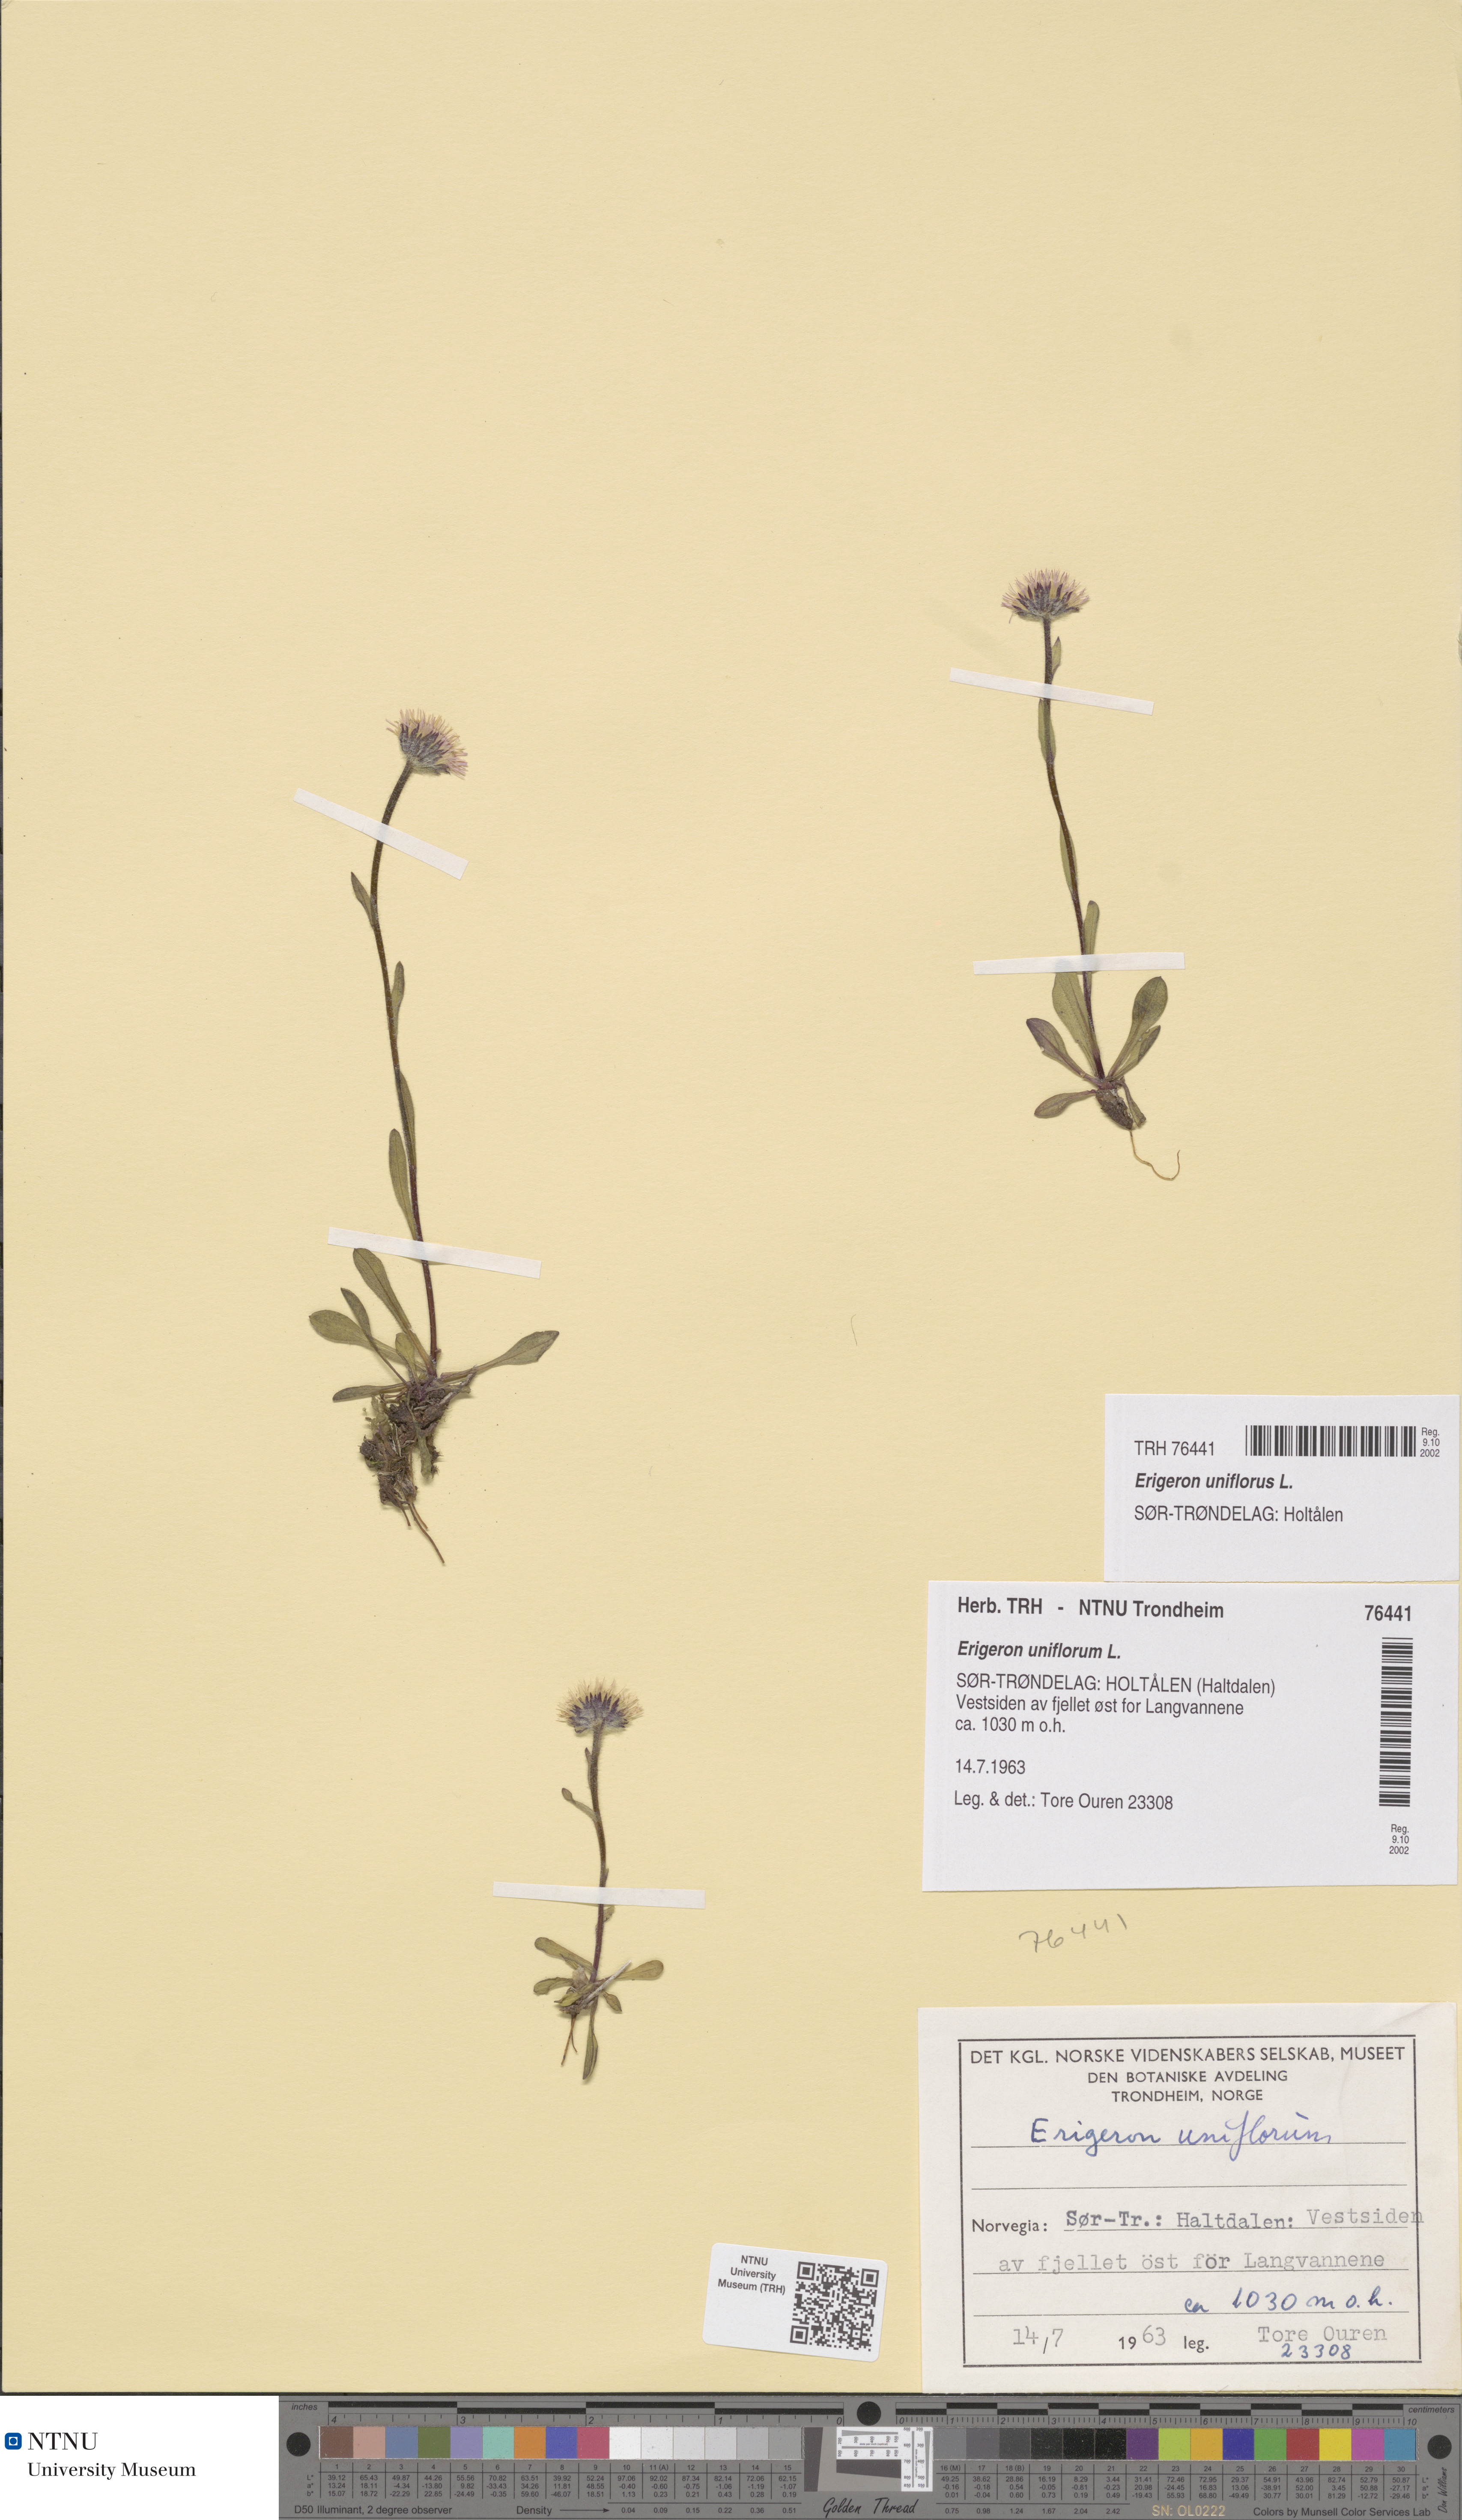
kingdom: Plantae
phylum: Tracheophyta
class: Magnoliopsida
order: Asterales
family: Asteraceae
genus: Erigeron
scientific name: Erigeron uniflorus
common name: Northern daisy
